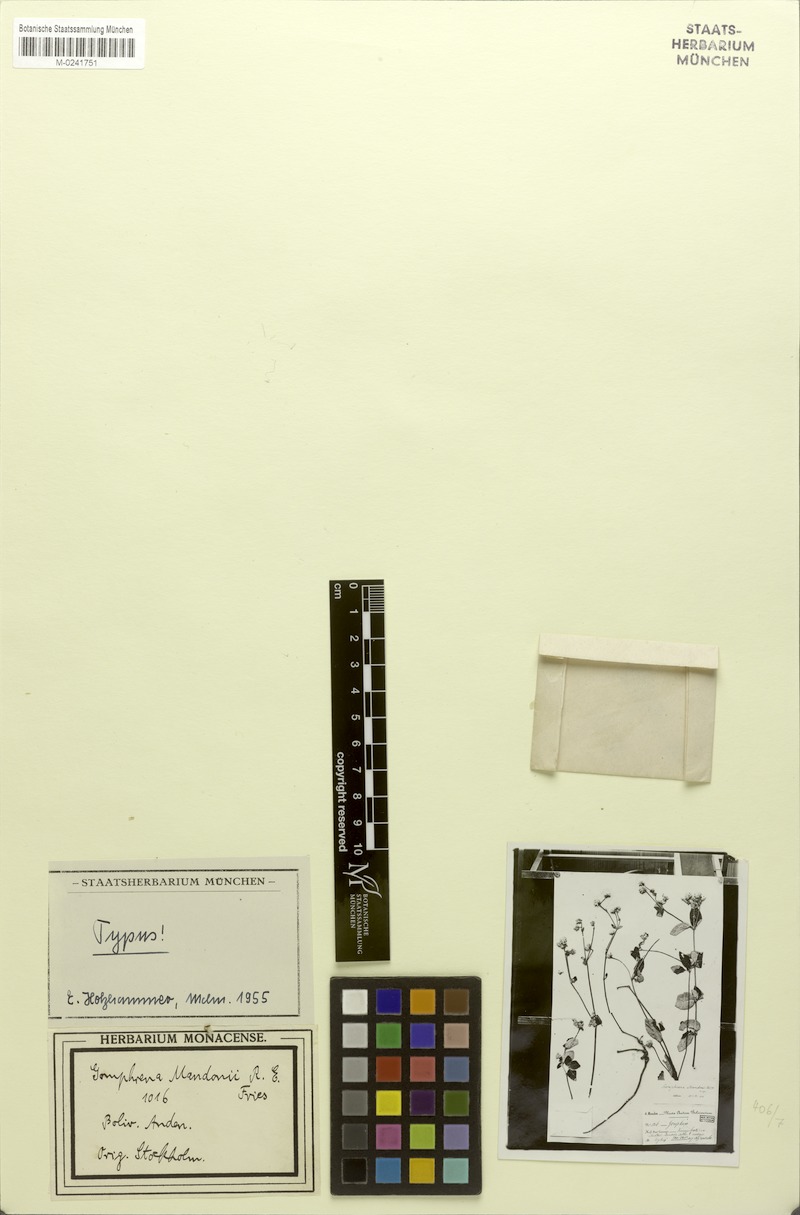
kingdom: Plantae
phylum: Tracheophyta
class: Magnoliopsida
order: Caryophyllales
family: Amaranthaceae
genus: Gomphrena
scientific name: Gomphrena mandonii
